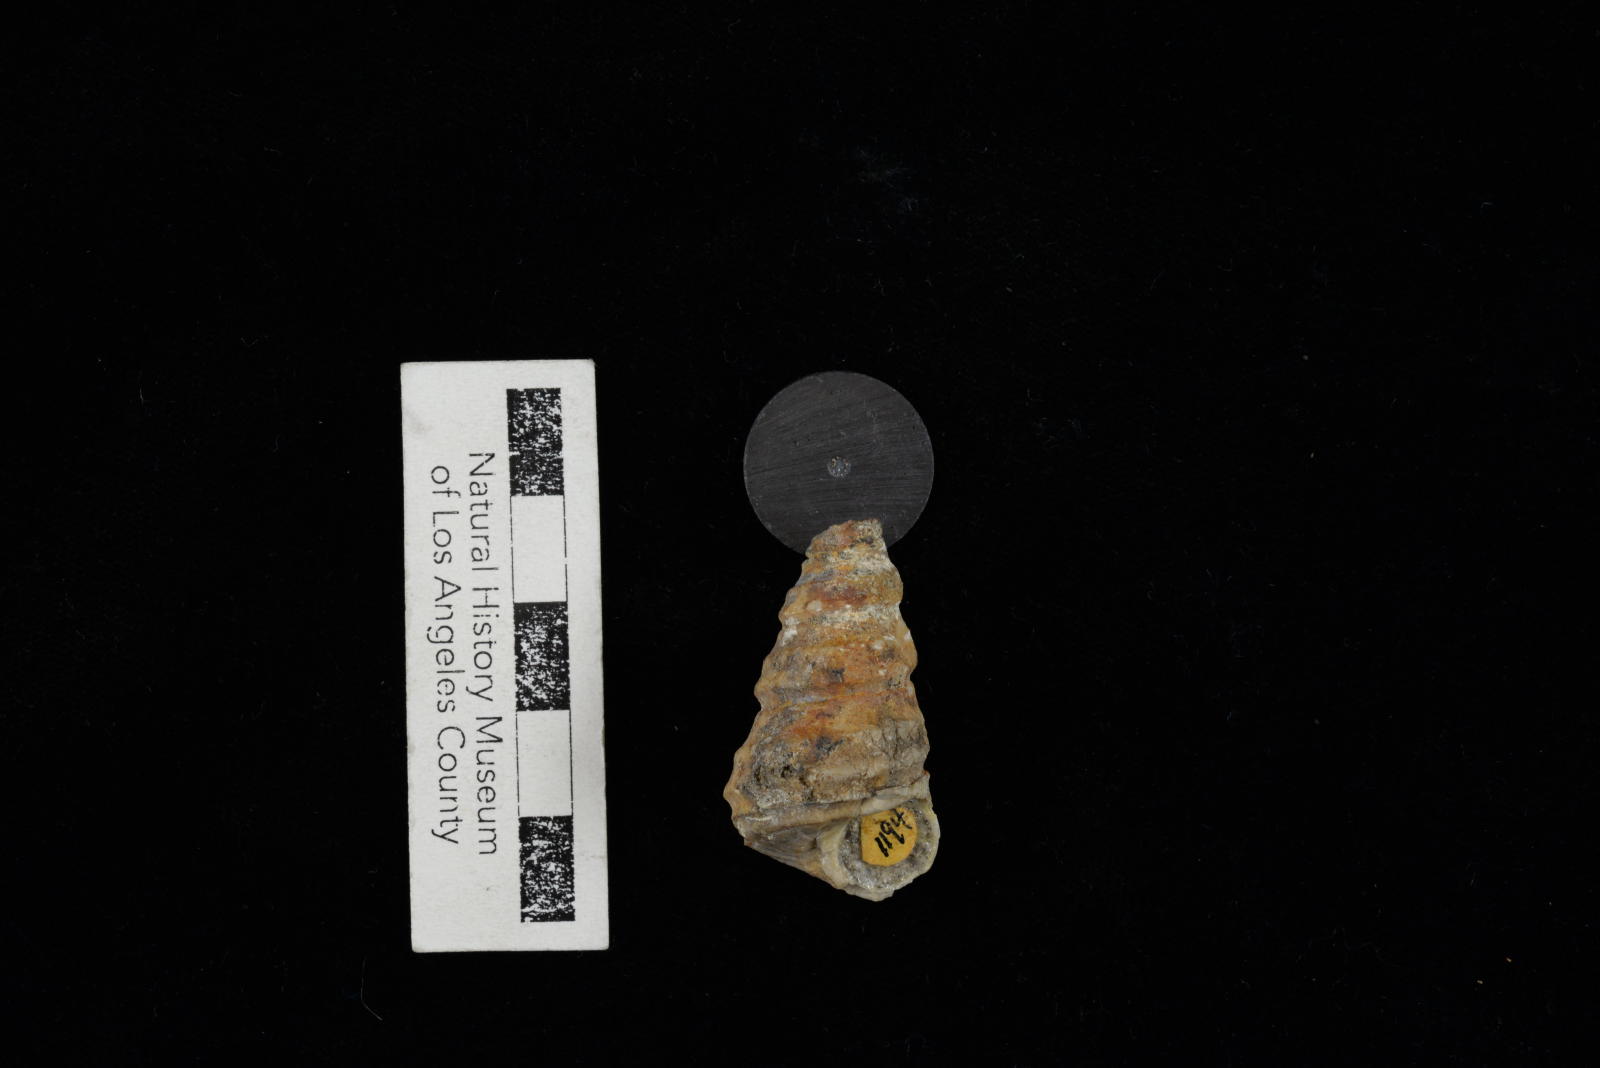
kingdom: Animalia
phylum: Mollusca
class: Gastropoda
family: Turritellidae
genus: Turritella
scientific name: Turritella robusta
